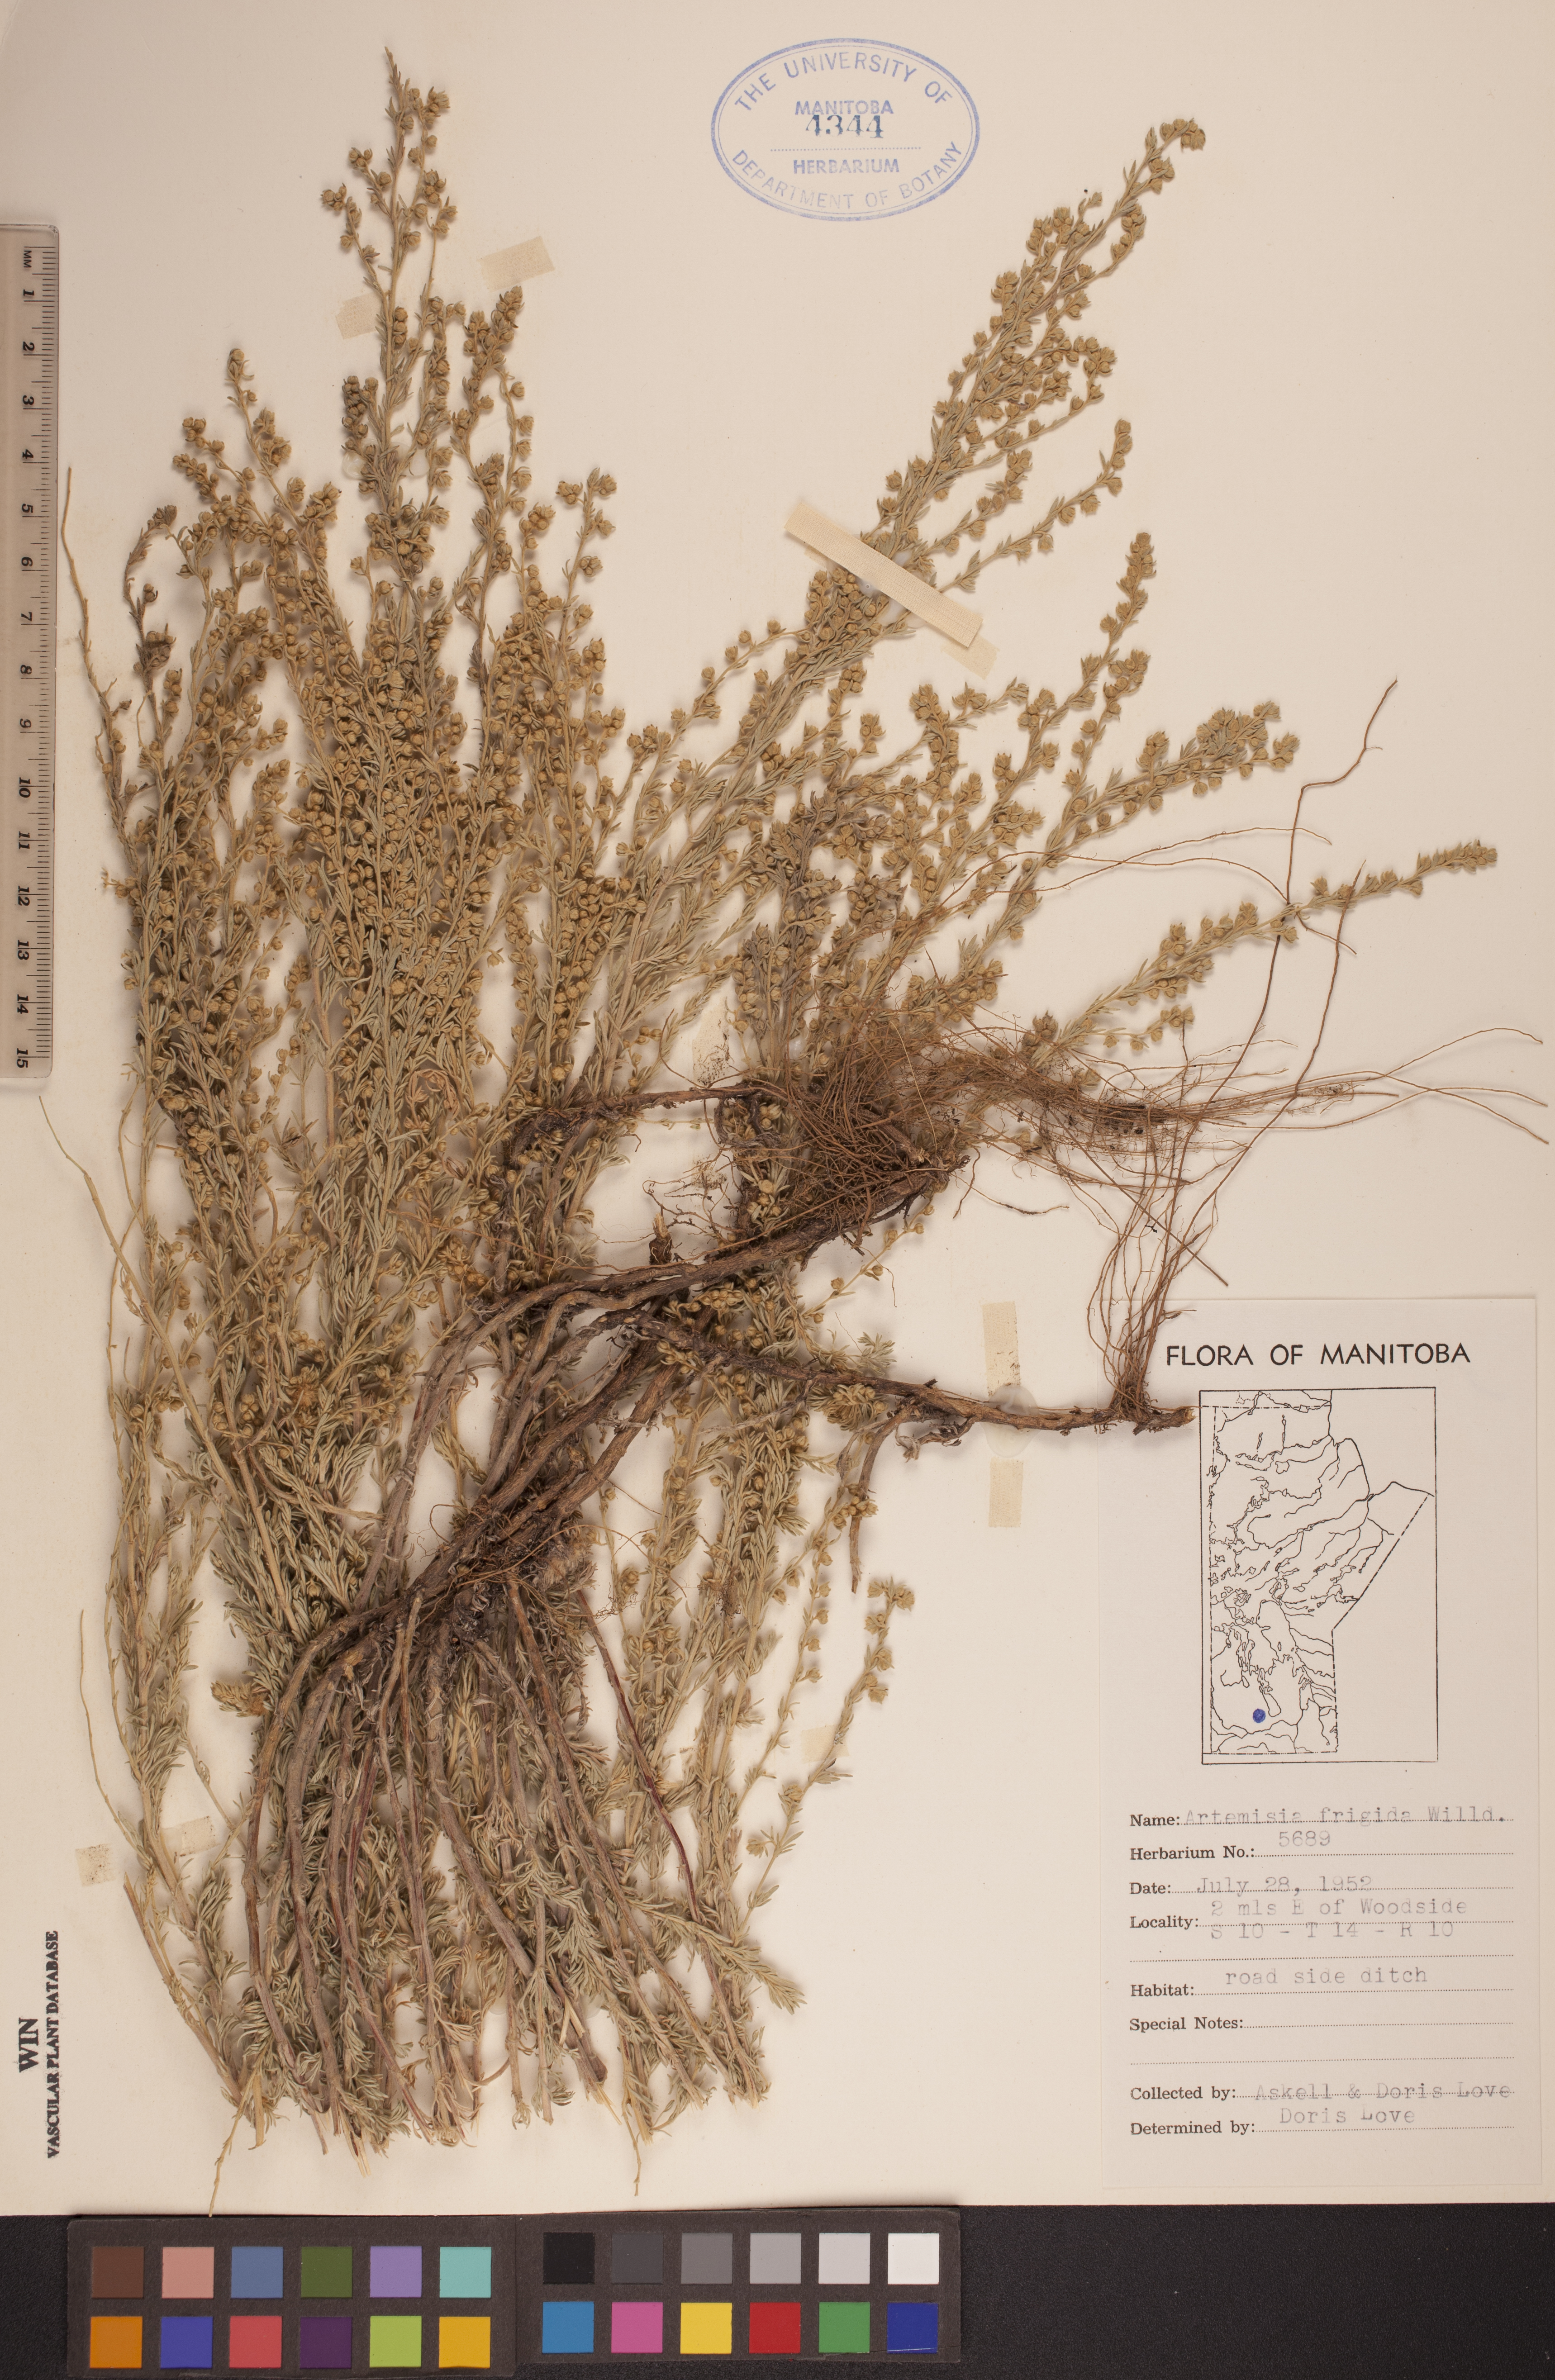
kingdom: Plantae
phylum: Tracheophyta
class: Magnoliopsida
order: Asterales
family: Asteraceae
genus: Artemisia
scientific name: Artemisia frigida
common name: Prairie sagewort
